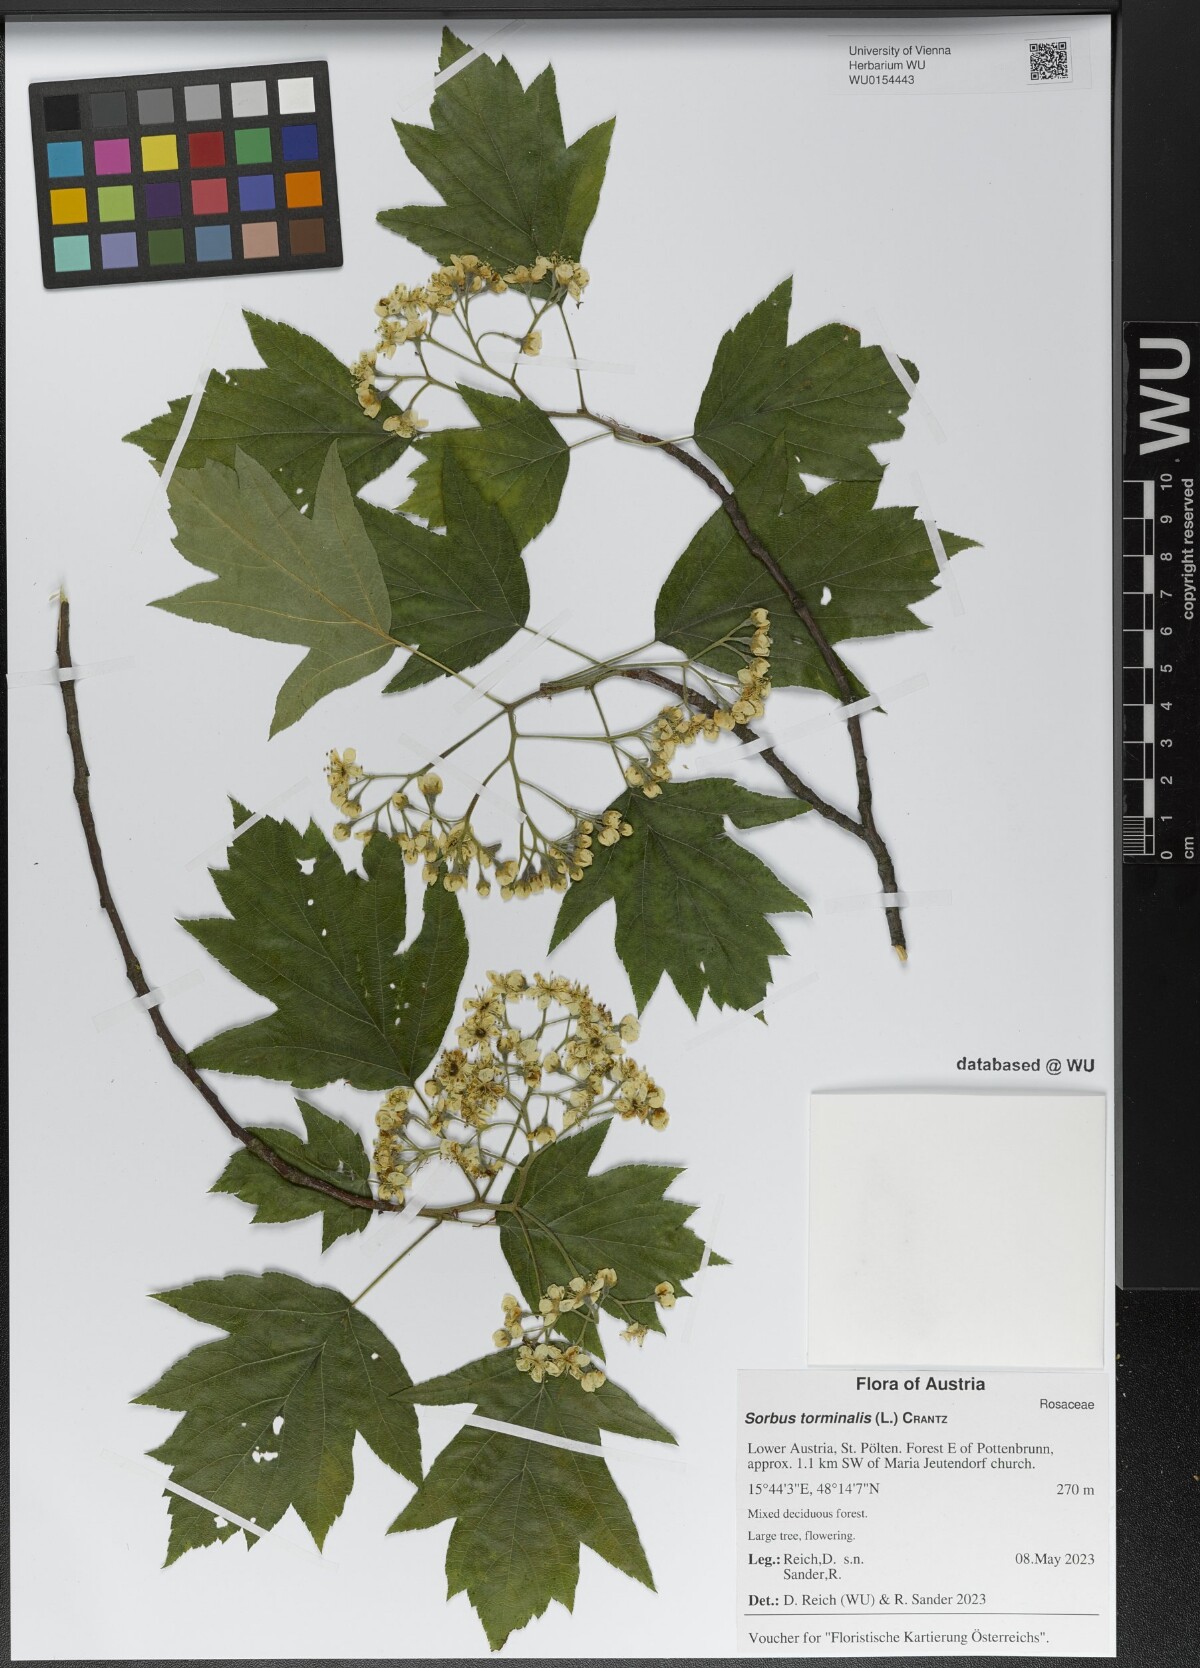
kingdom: Plantae
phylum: Tracheophyta
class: Magnoliopsida
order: Rosales
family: Rosaceae
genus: Torminalis
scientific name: Torminalis glaberrima
